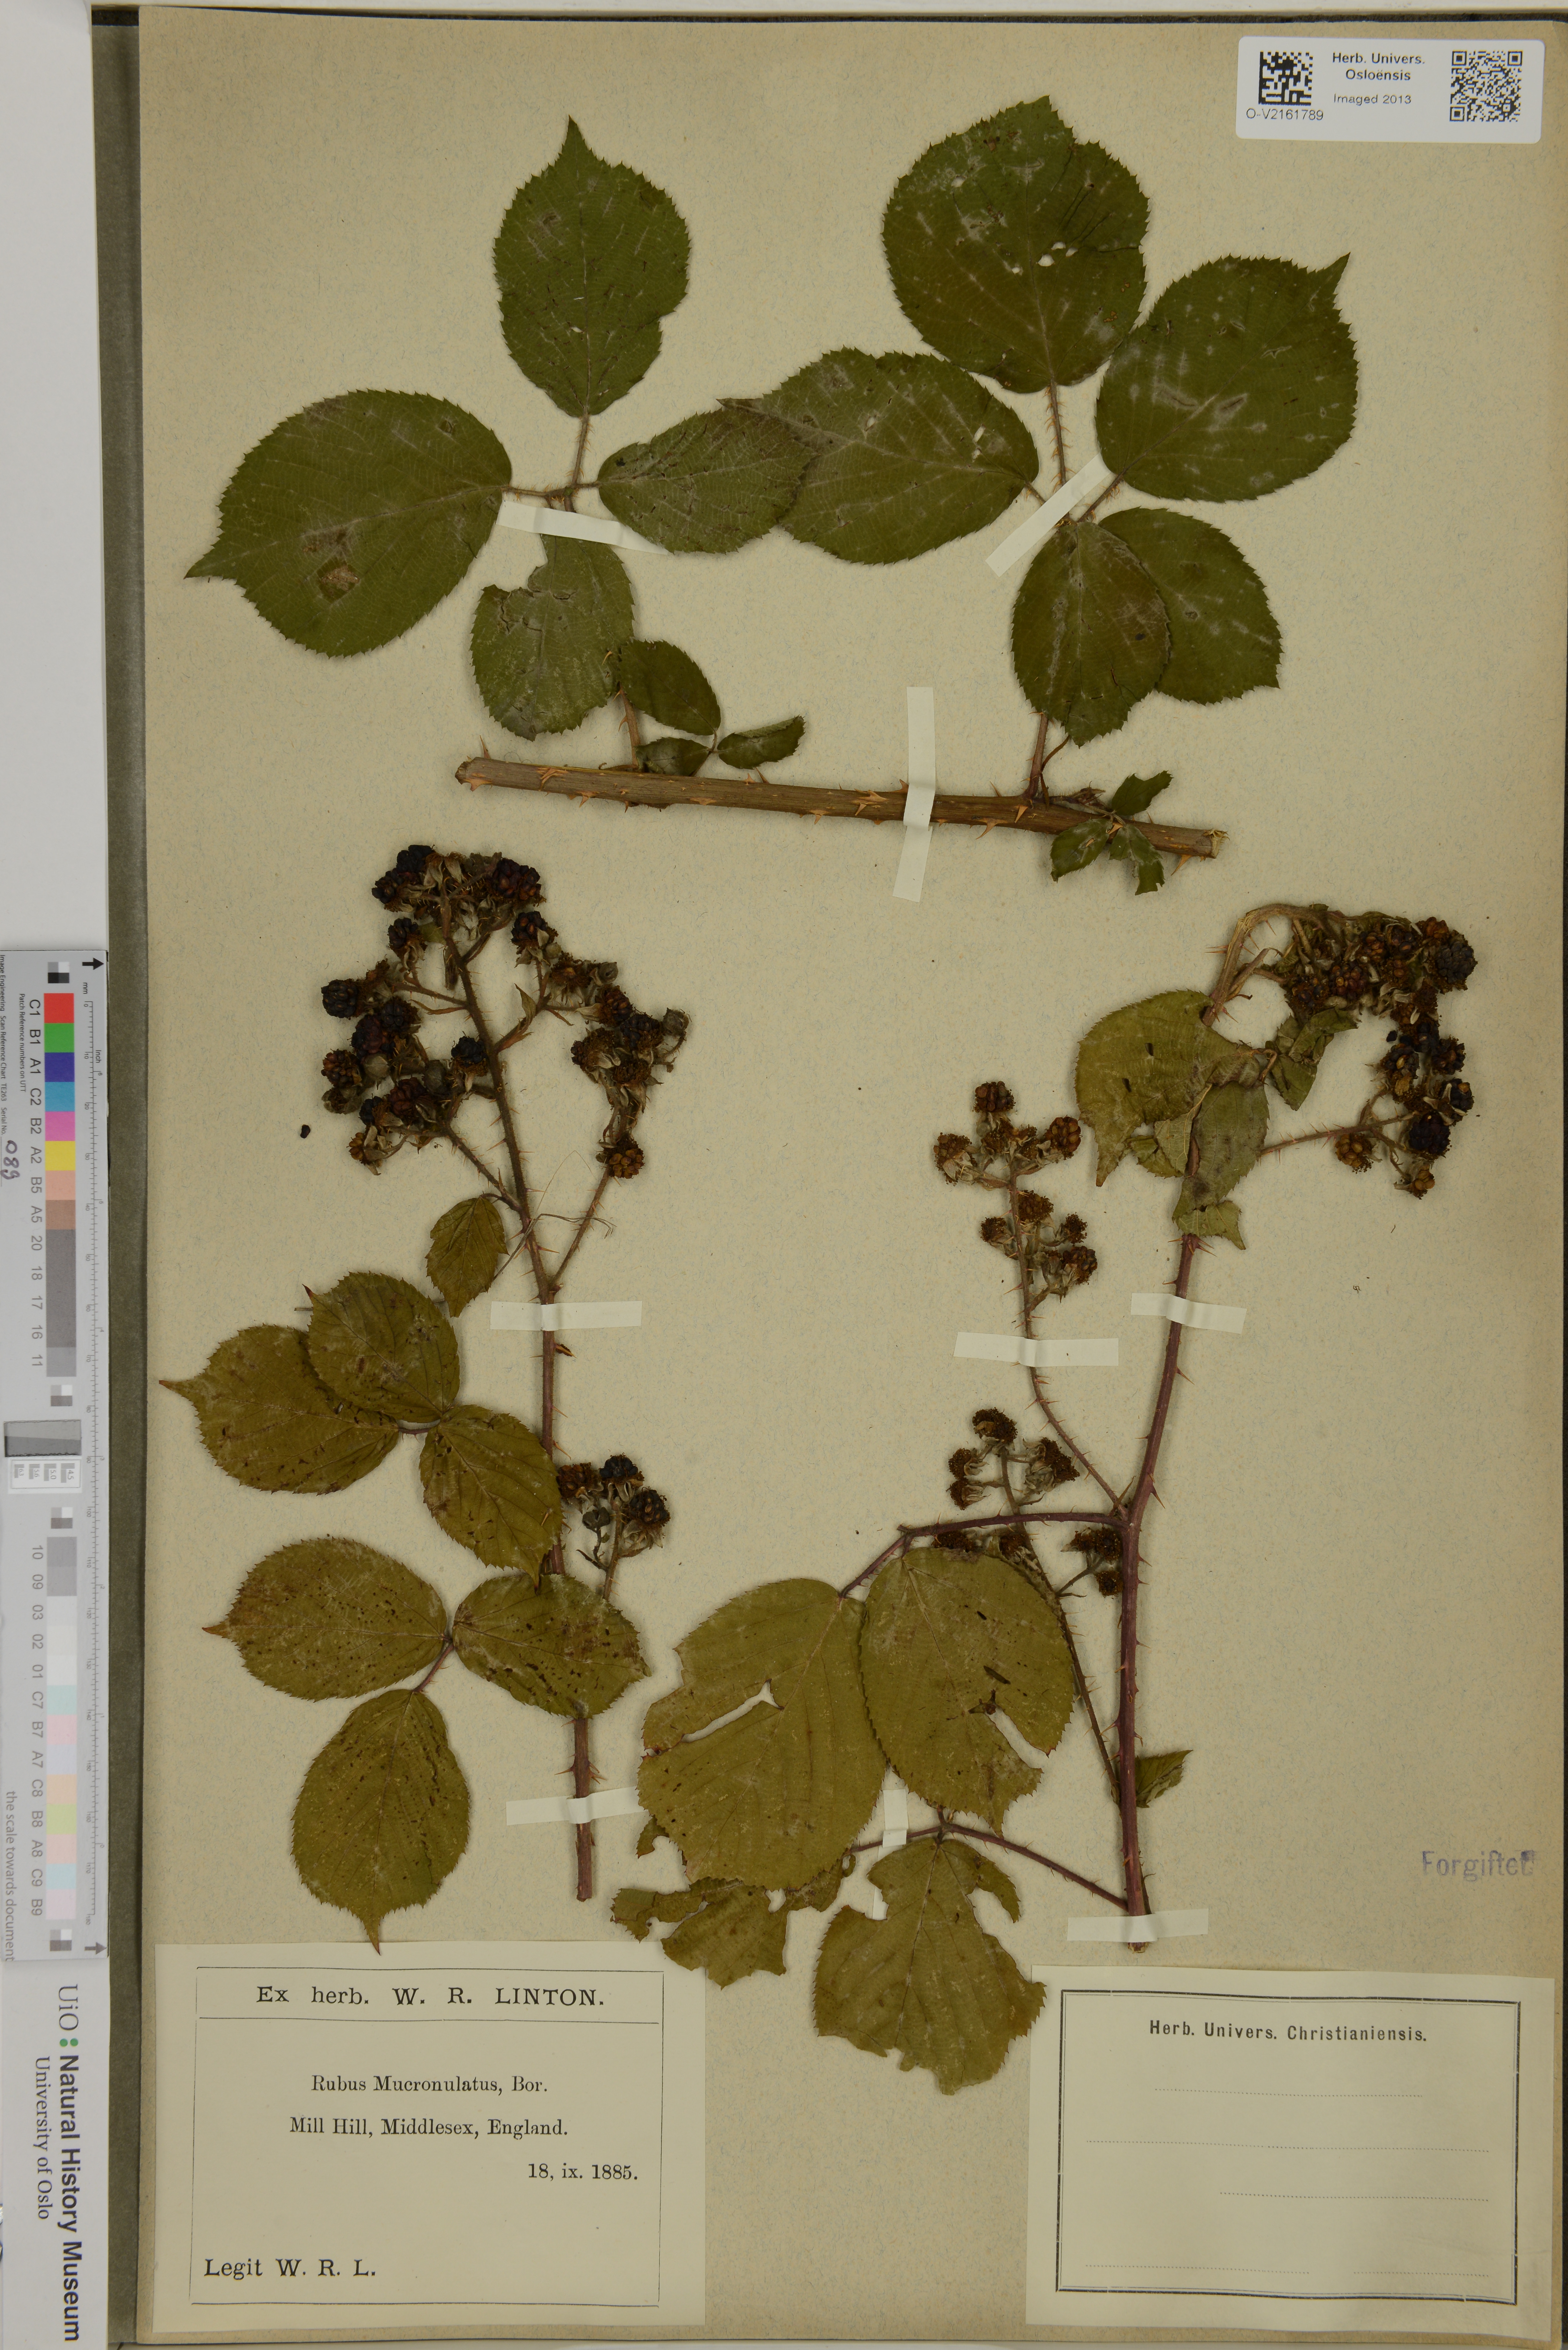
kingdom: Plantae
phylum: Tracheophyta
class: Magnoliopsida
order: Rosales
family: Rosaceae
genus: Rubus
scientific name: Rubus mucronulatus
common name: Cuspidate-leaved bramble
